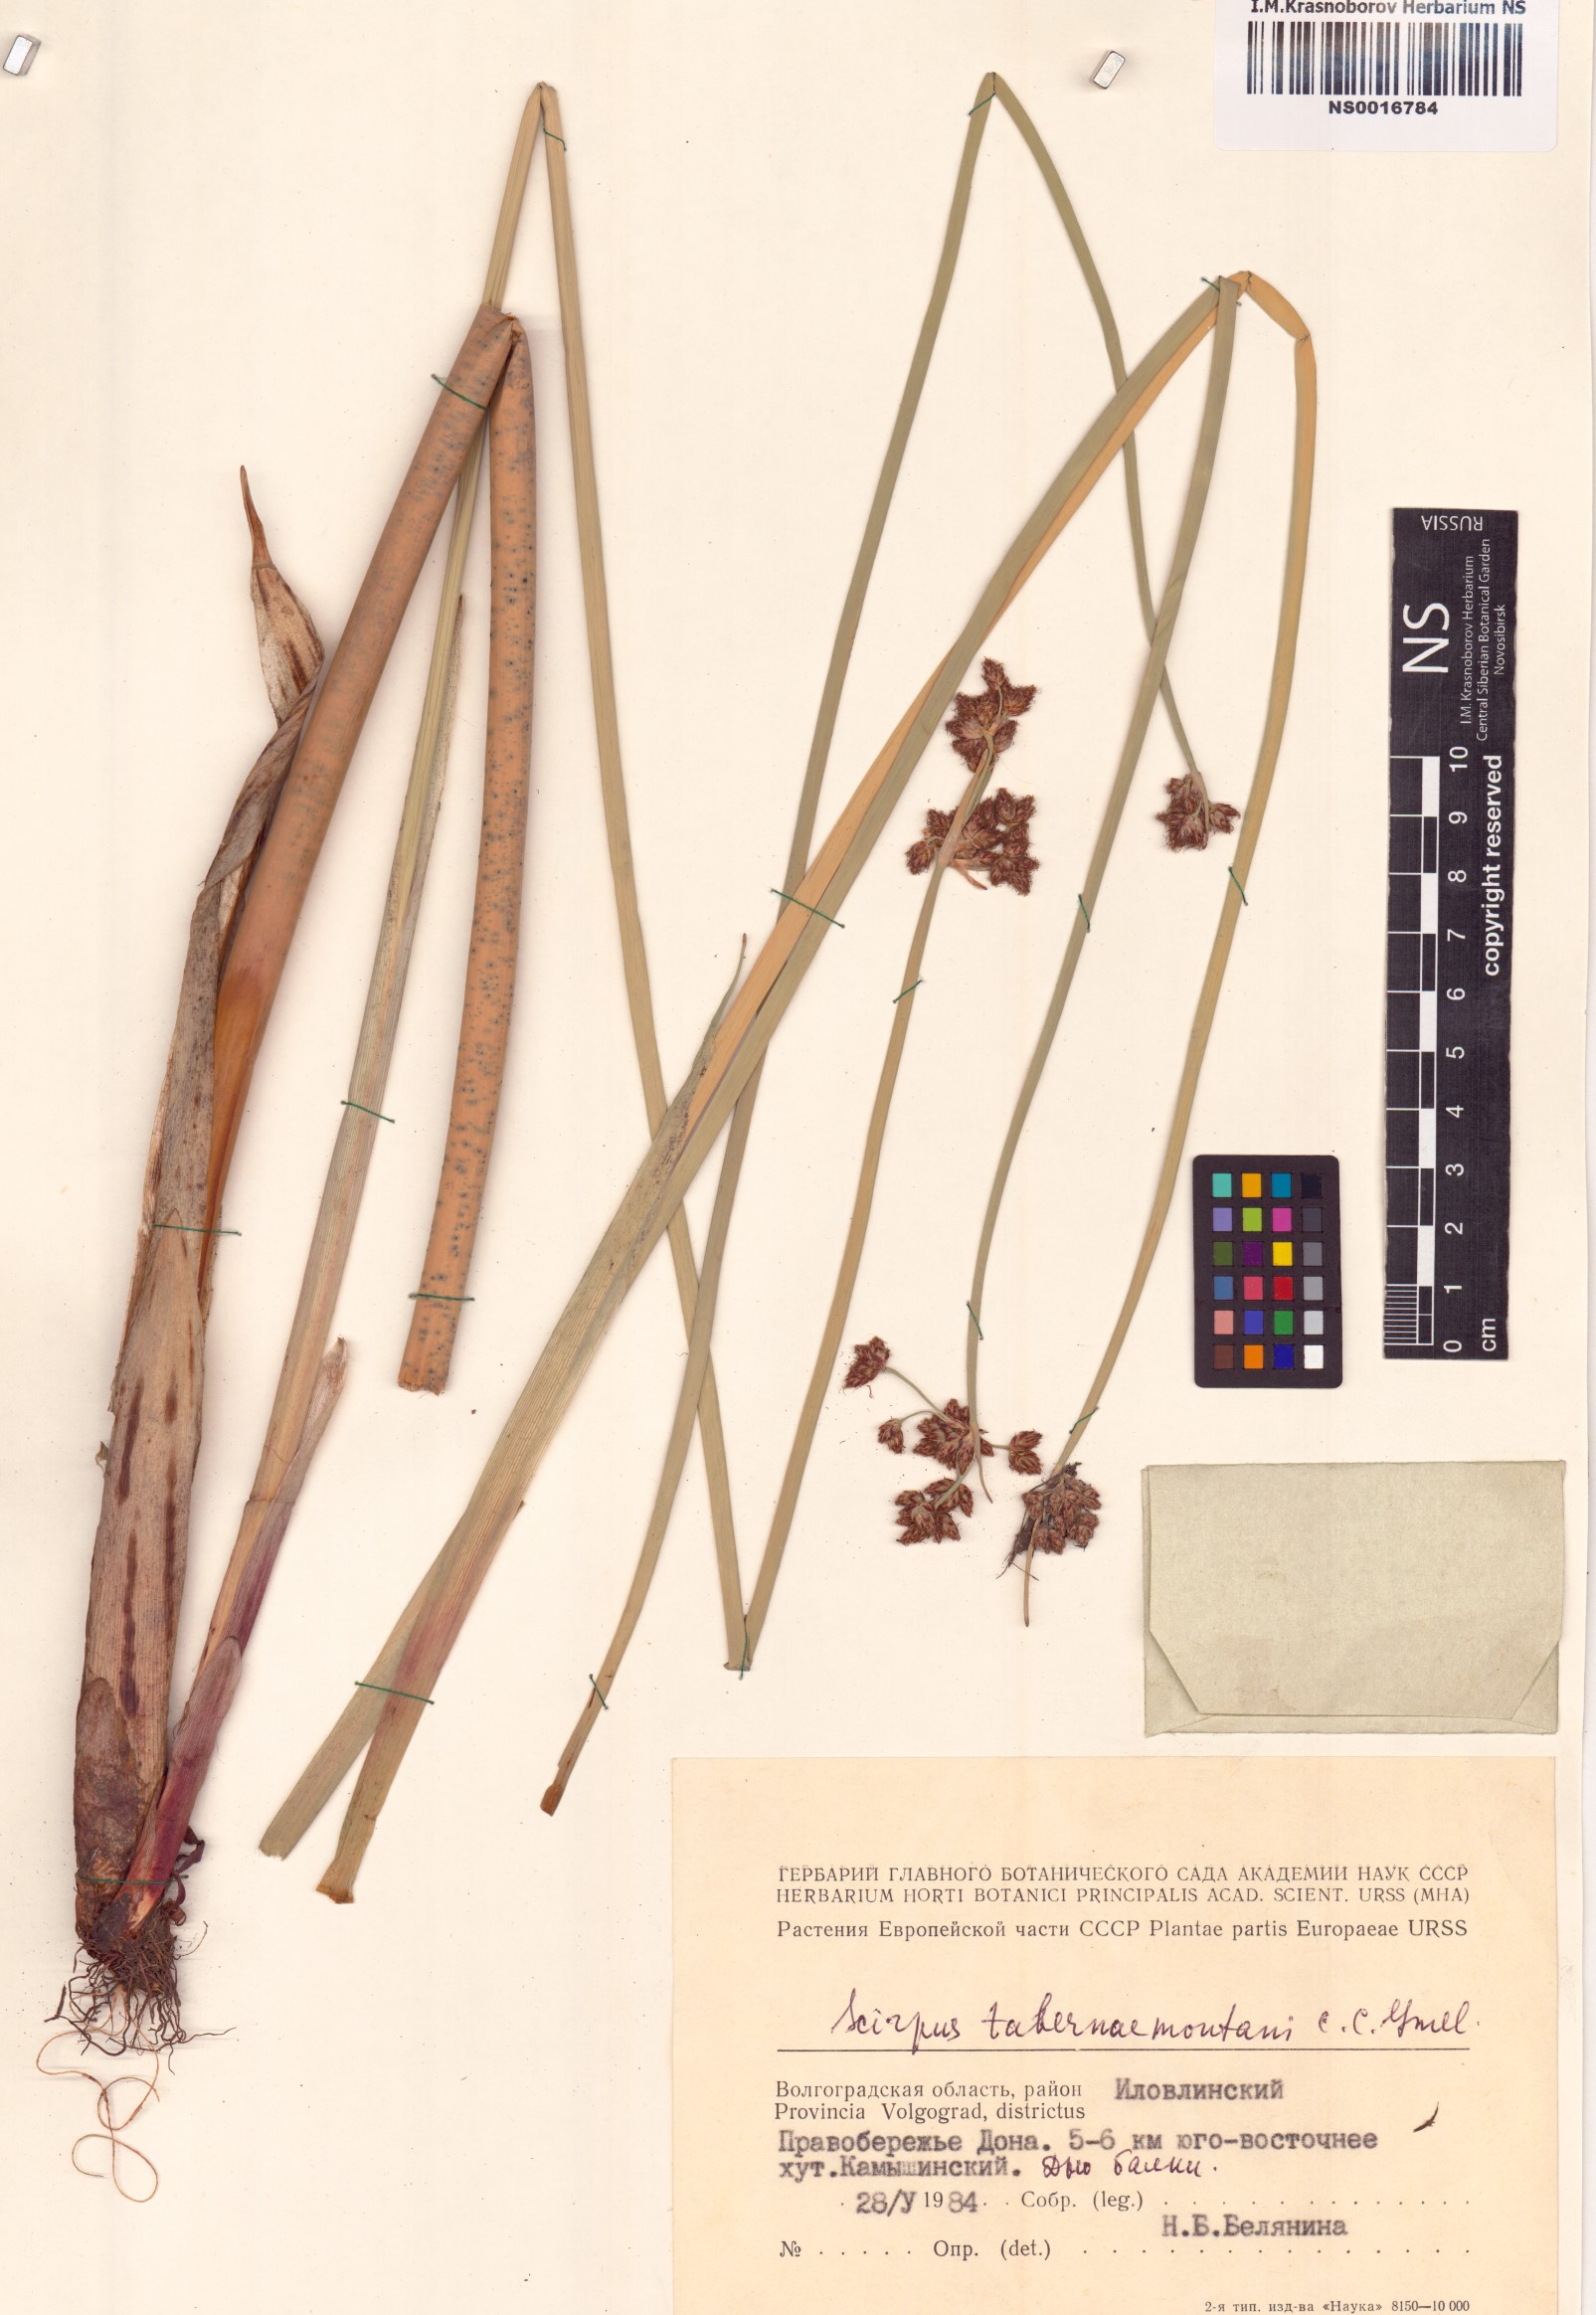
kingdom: Plantae
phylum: Tracheophyta
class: Liliopsida
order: Poales
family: Cyperaceae
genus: Schoenoplectus
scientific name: Schoenoplectus tabernaemontani
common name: Grey club-rush
